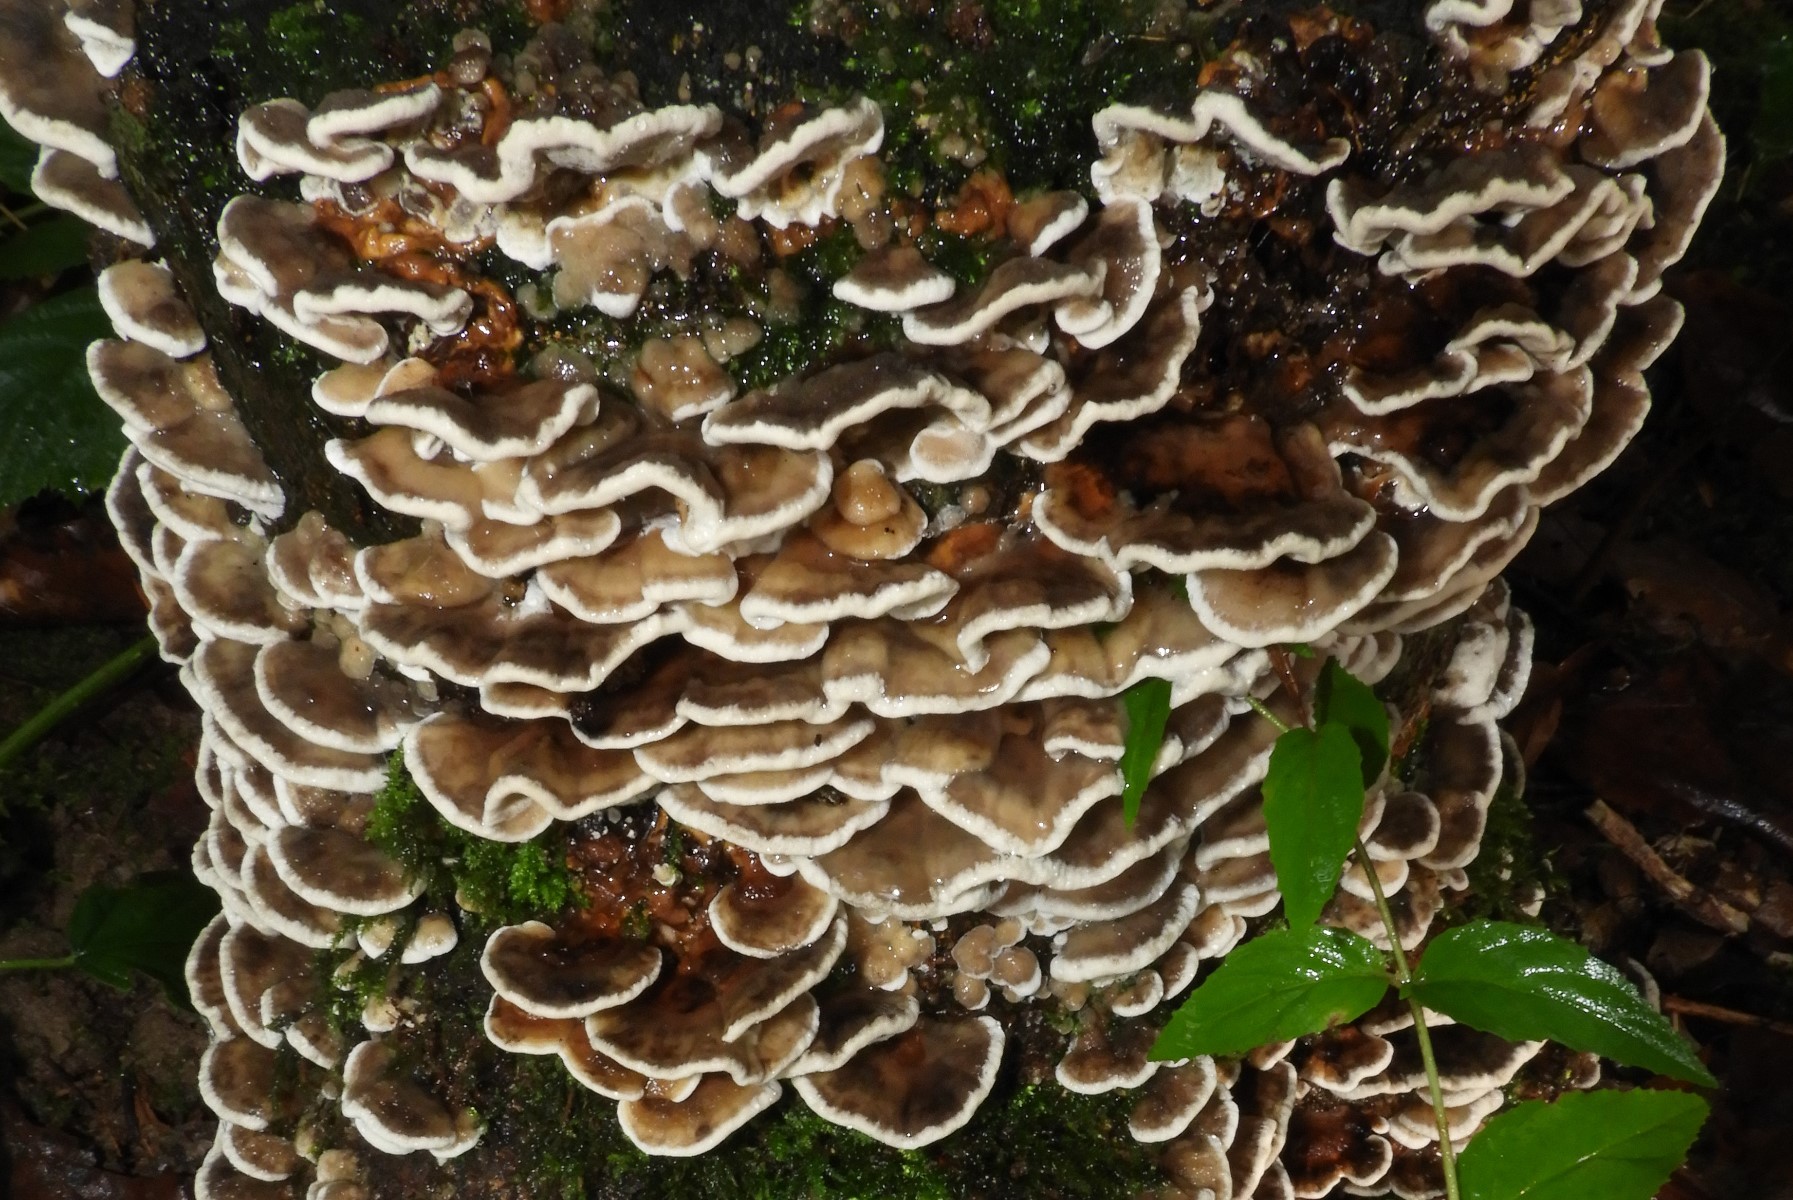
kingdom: Fungi
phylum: Basidiomycota
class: Agaricomycetes
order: Polyporales
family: Phanerochaetaceae
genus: Bjerkandera
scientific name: Bjerkandera adusta
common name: sveden sodporesvamp
